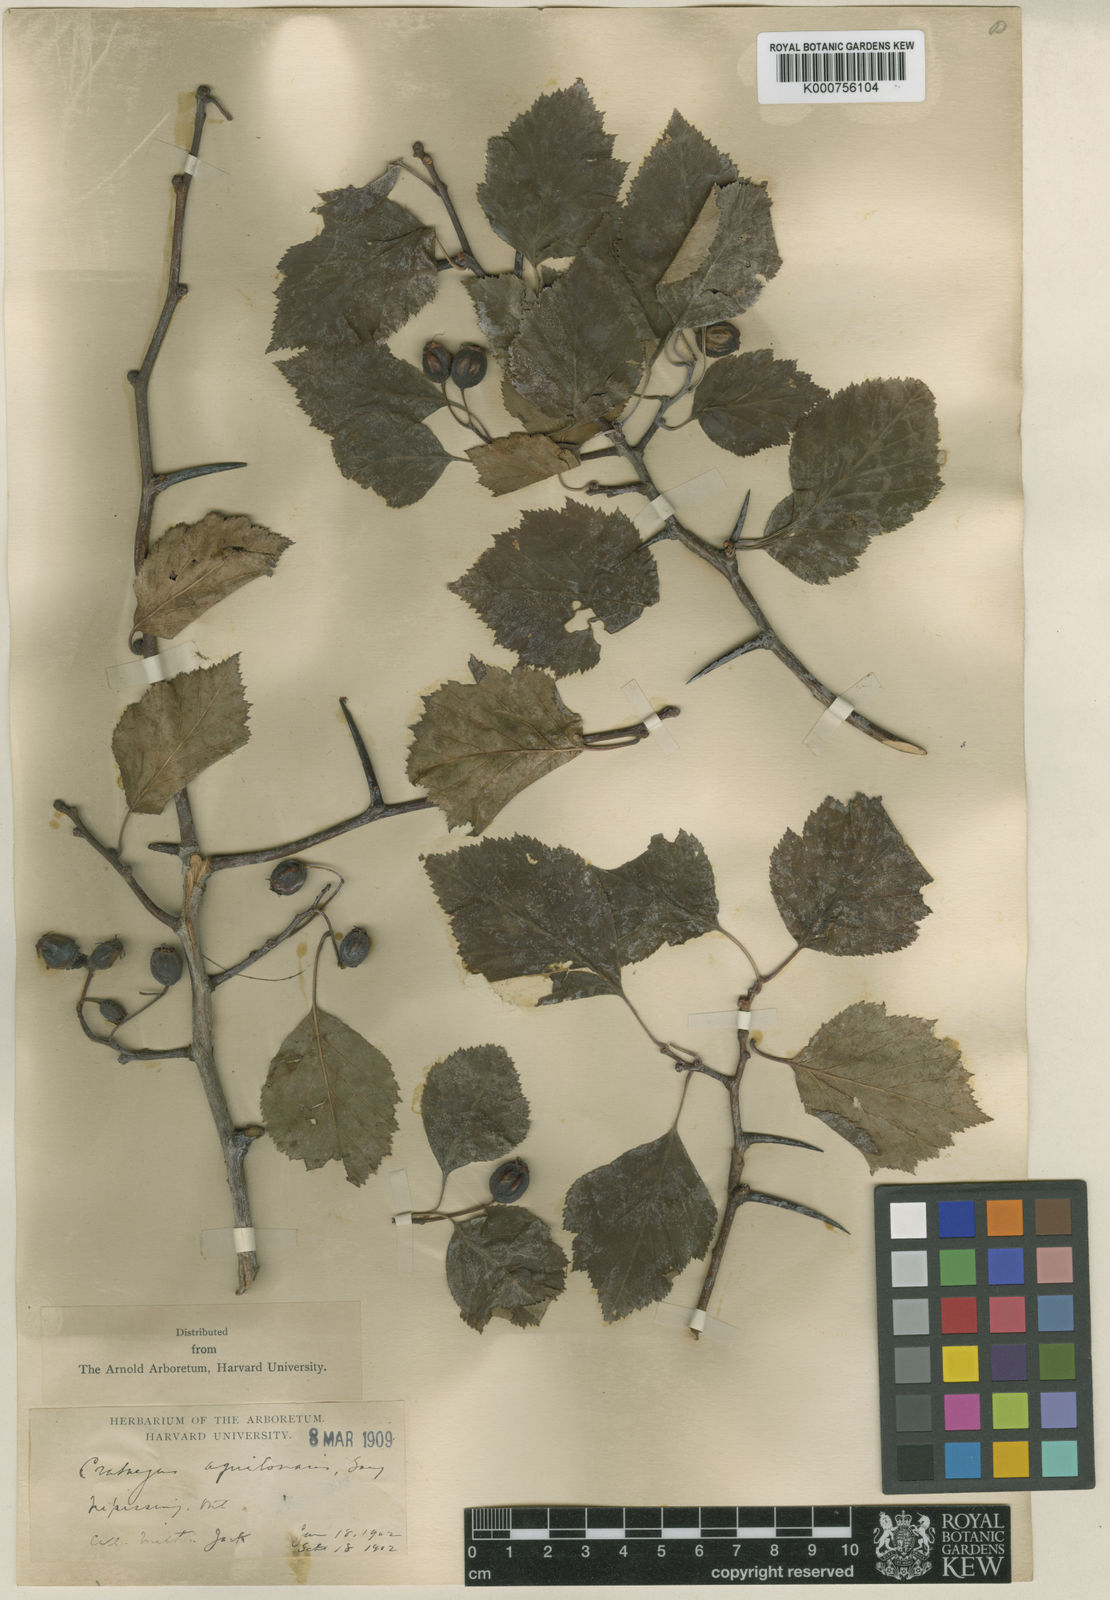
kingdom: Plantae
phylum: Tracheophyta
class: Magnoliopsida
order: Rosales
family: Rosaceae
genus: Crataegus
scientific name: Crataegus aquilonaris
